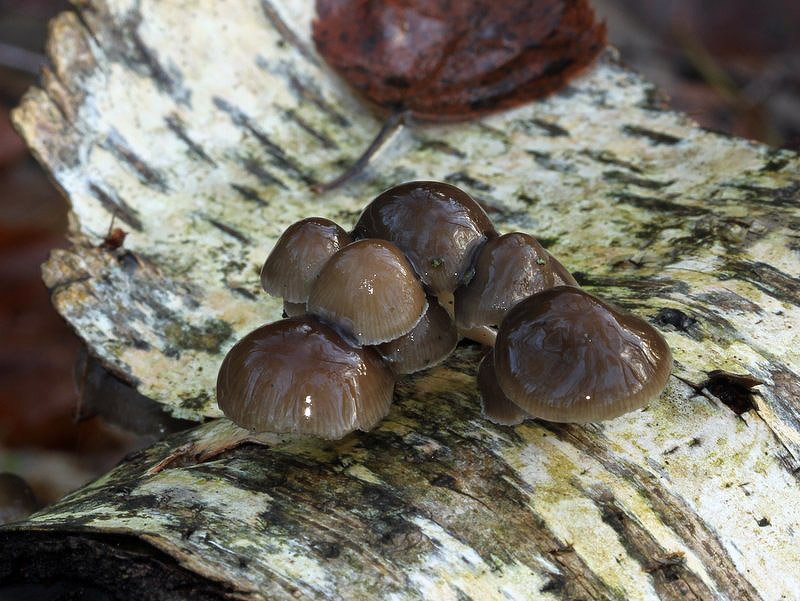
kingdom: Fungi
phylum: Basidiomycota
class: Agaricomycetes
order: Agaricales
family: Mycenaceae
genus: Mycena
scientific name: Mycena tintinnabulum
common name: vinter-huesvamp
